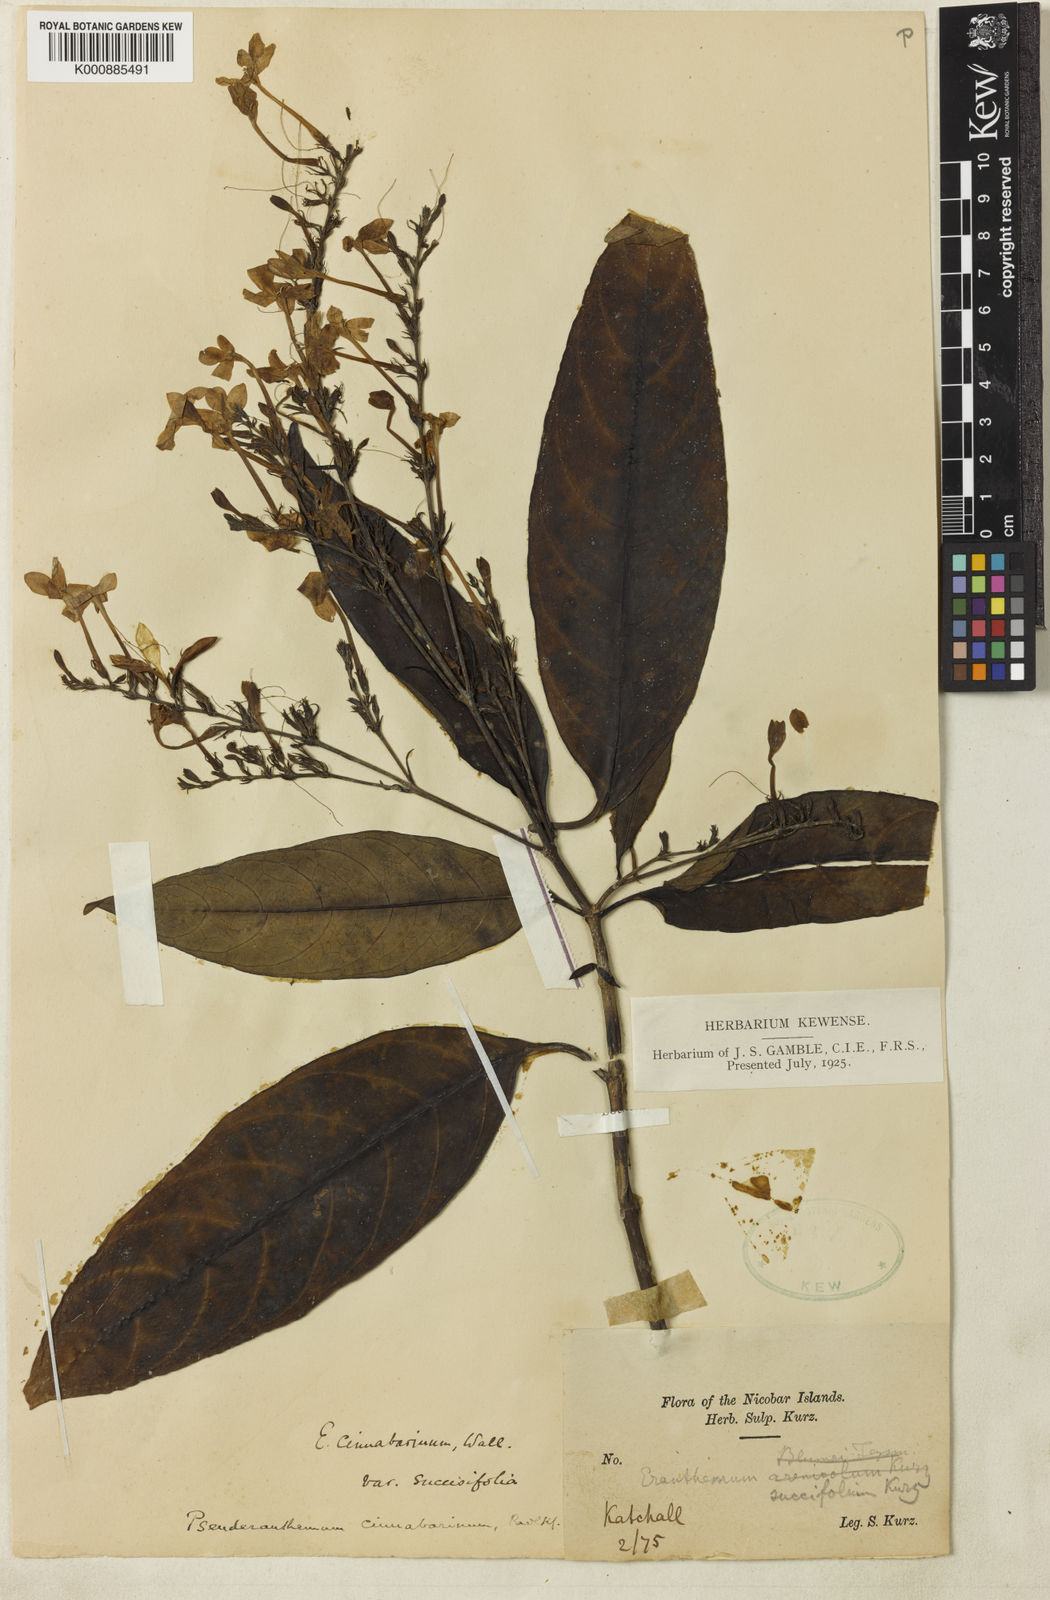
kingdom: Plantae
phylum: Tracheophyta
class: Magnoliopsida
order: Lamiales
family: Acanthaceae
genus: Pseuderanthemum
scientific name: Pseuderanthemum cinnabarinum
